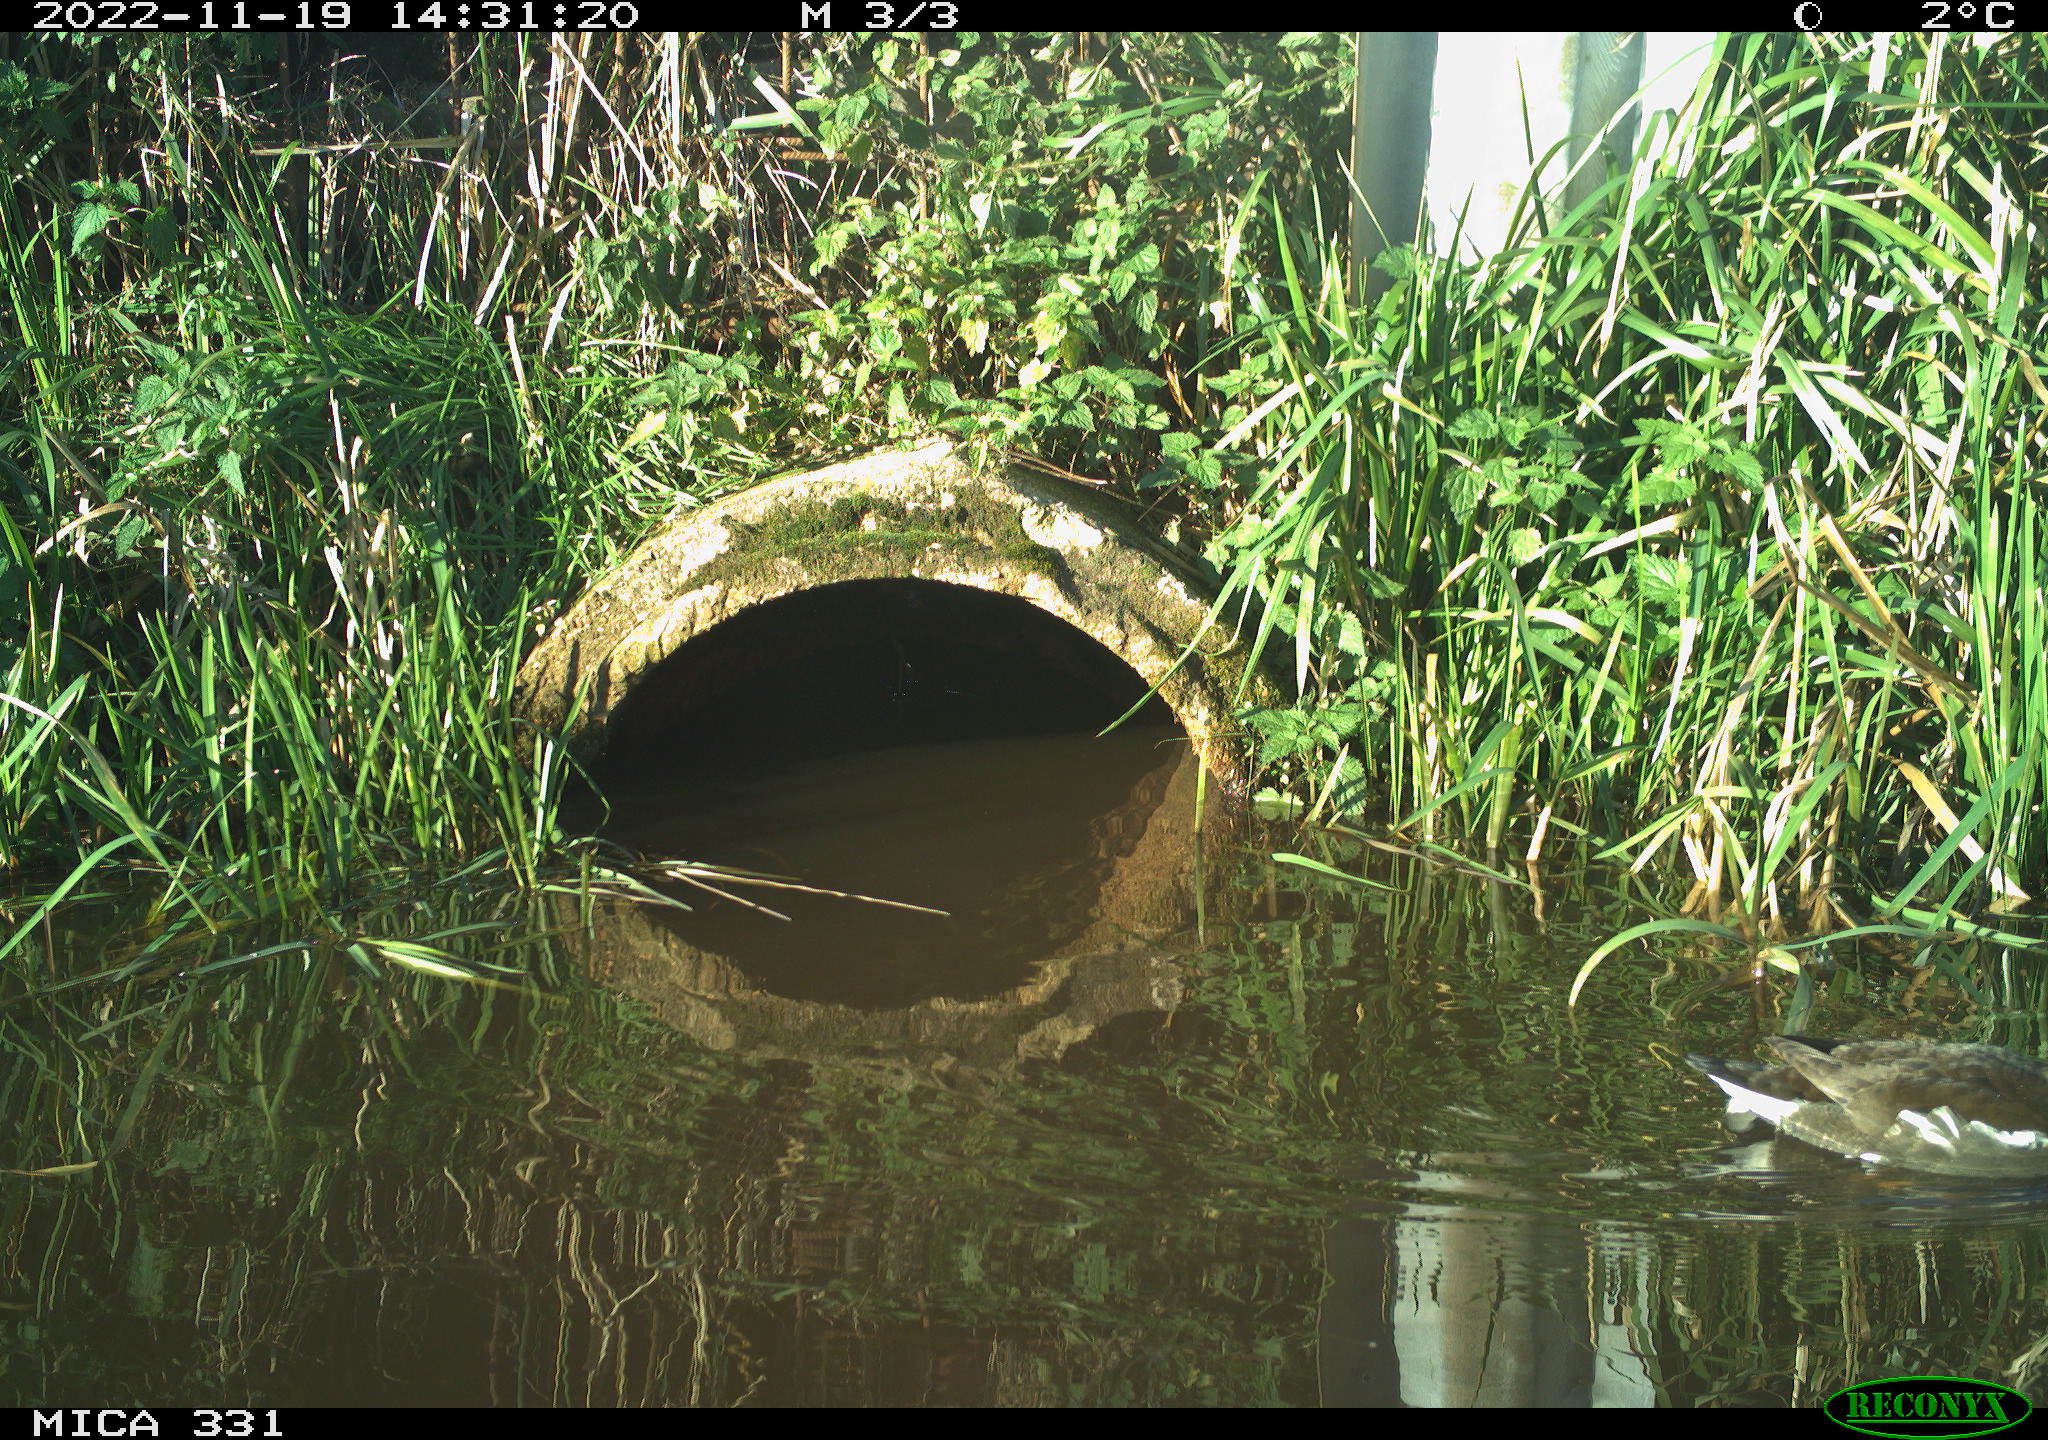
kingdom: Animalia
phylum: Chordata
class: Aves
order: Gruiformes
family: Rallidae
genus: Gallinula
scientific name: Gallinula chloropus
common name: Common moorhen
